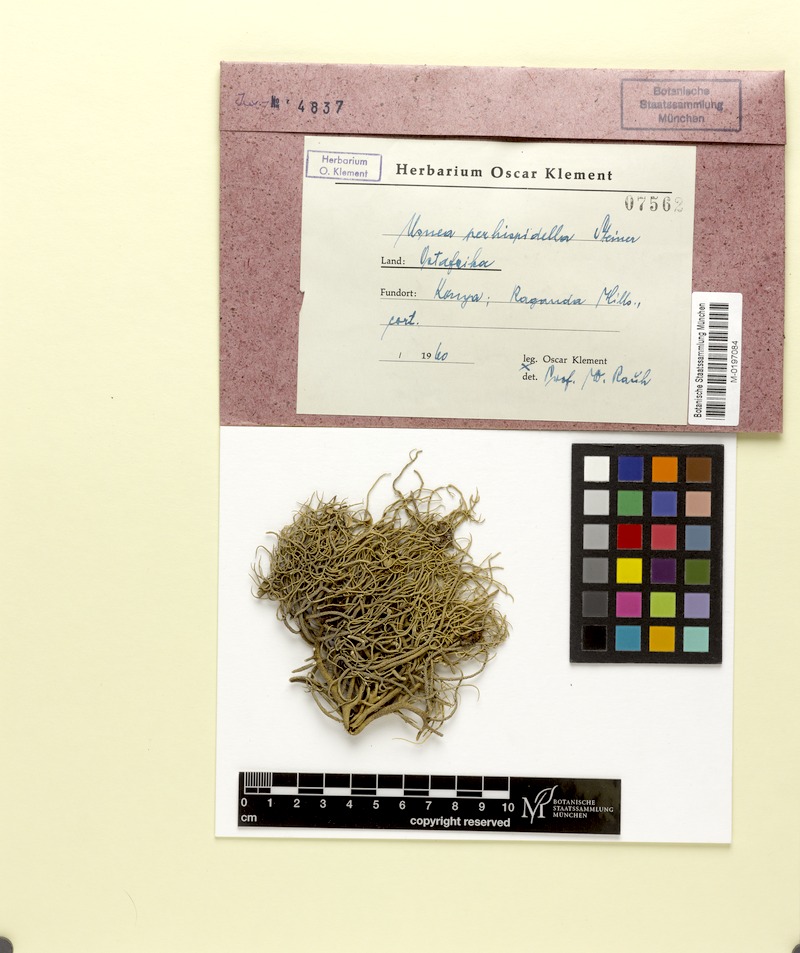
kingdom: Fungi
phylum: Ascomycota
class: Lecanoromycetes
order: Lecanorales
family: Parmeliaceae
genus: Usnea
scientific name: Usnea perhispidella
